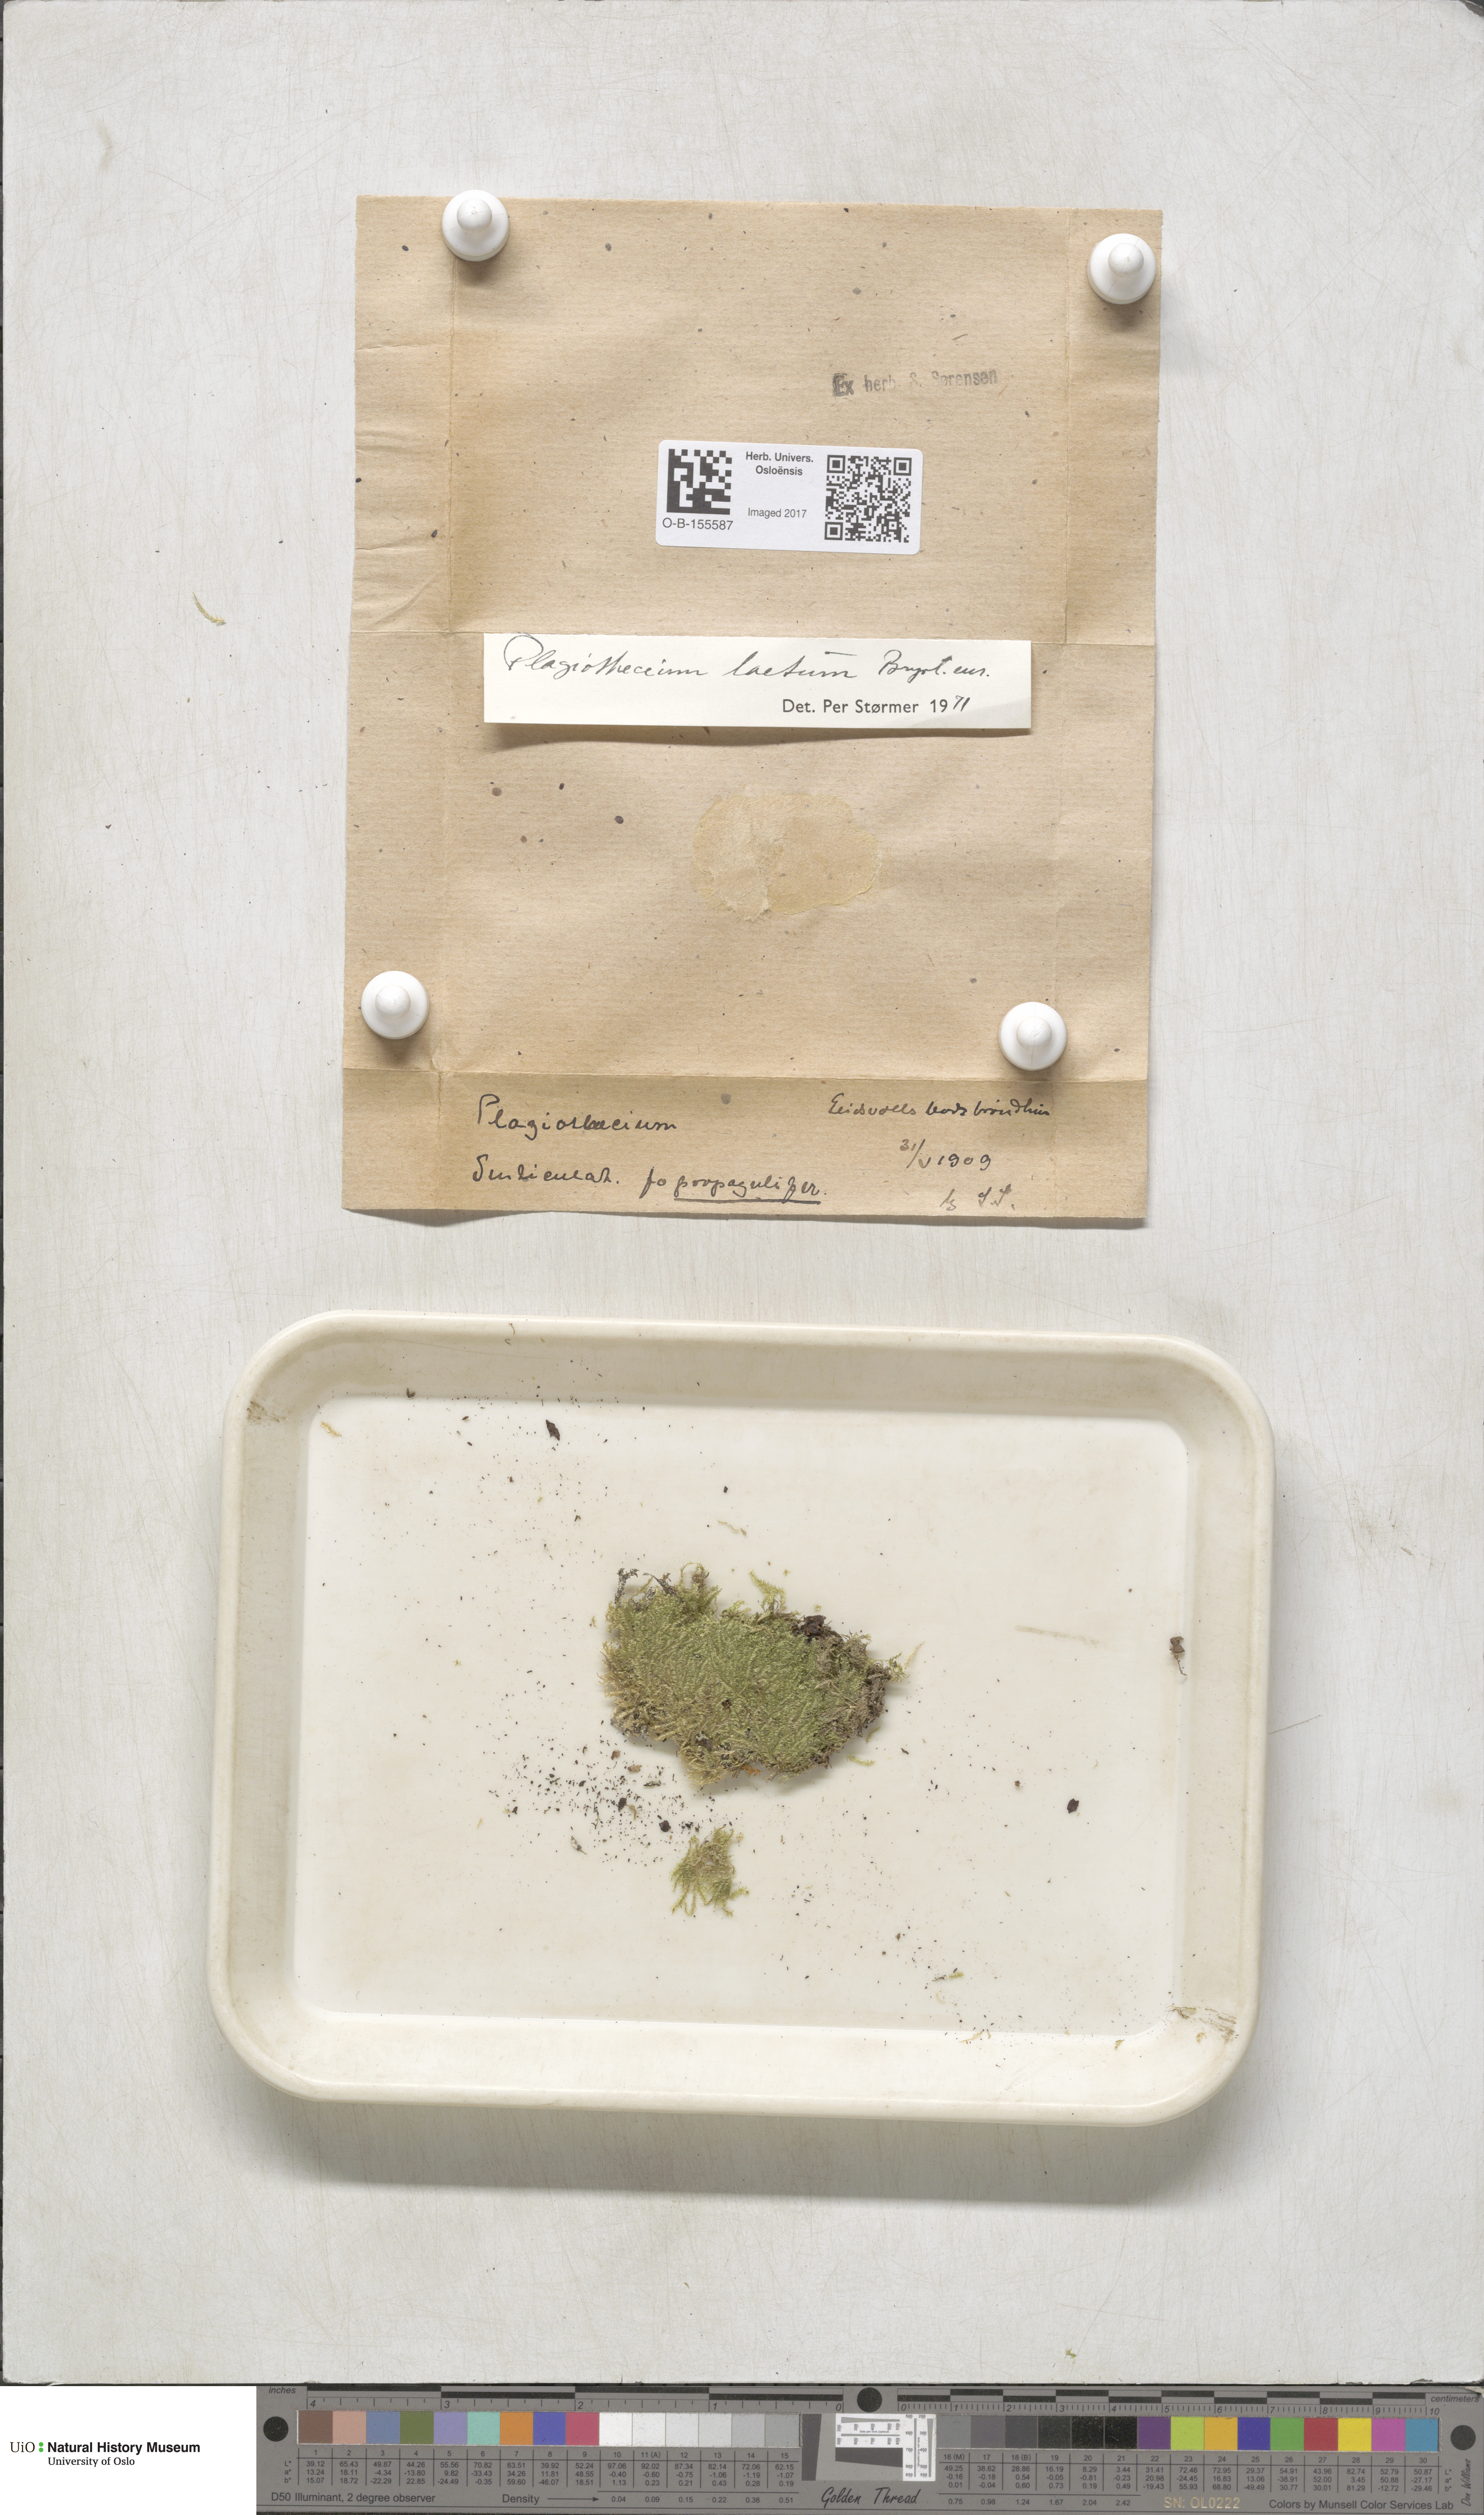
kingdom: Plantae
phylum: Bryophyta
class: Bryopsida
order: Hypnales
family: Plagiotheciaceae
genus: Plagiothecium
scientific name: Plagiothecium laetum
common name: Bright silk moss
